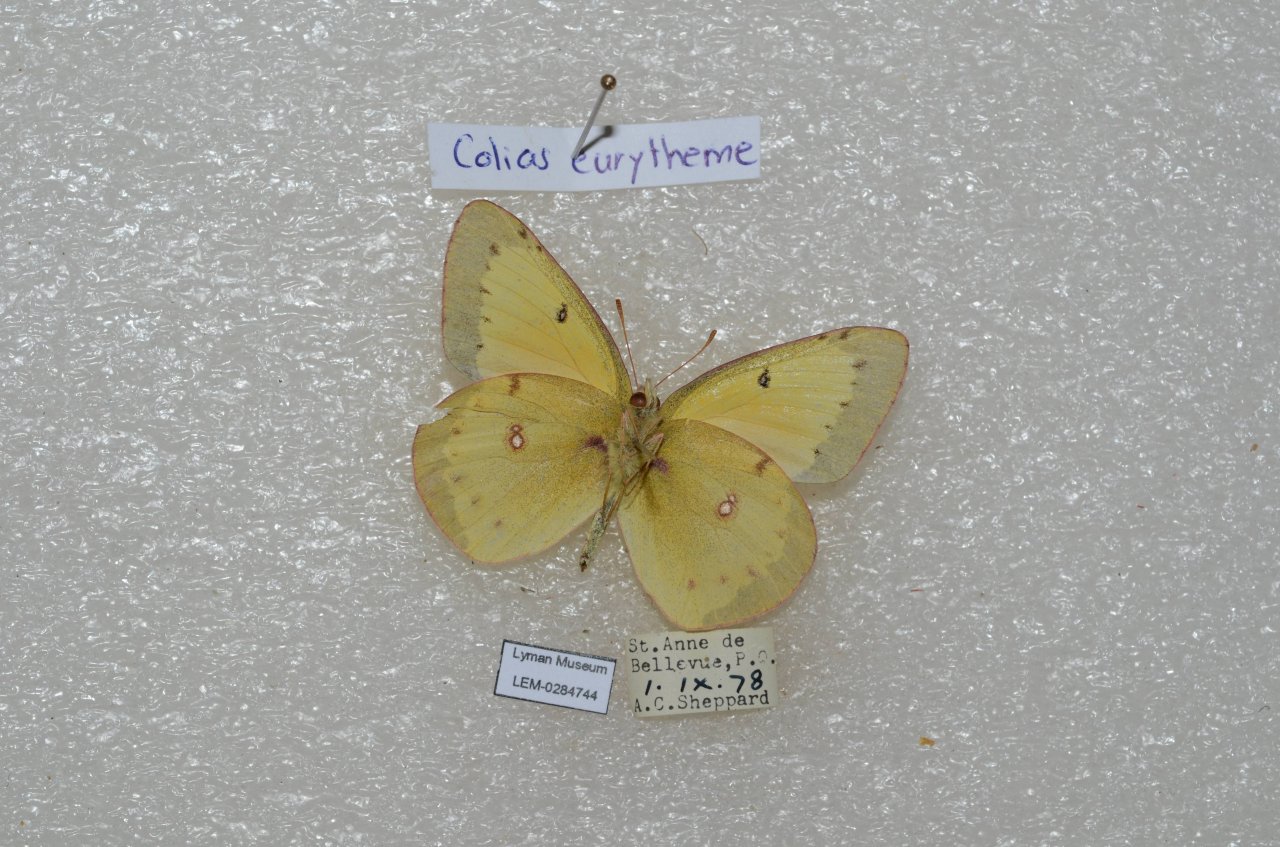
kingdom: Animalia
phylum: Arthropoda
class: Insecta
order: Lepidoptera
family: Pieridae
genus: Colias
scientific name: Colias eurytheme
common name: Orange Sulphur
